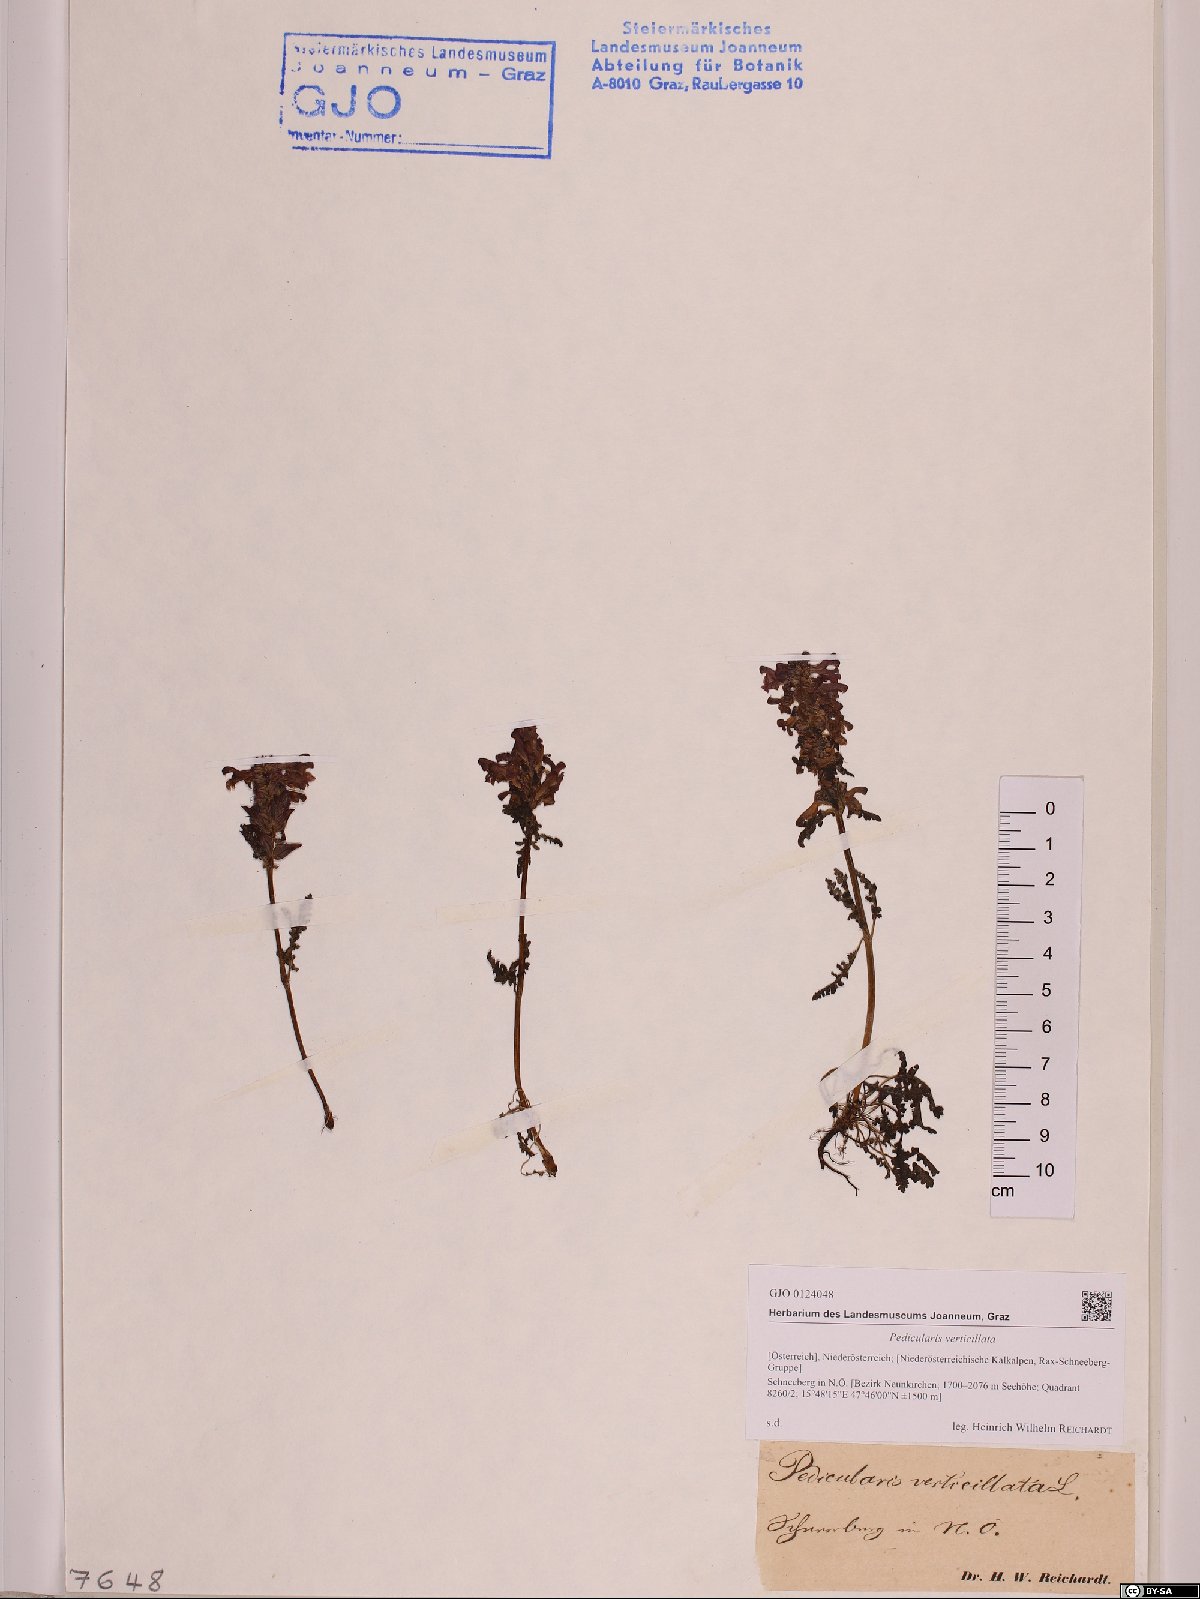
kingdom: Plantae
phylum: Tracheophyta
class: Magnoliopsida
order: Lamiales
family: Orobanchaceae
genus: Pedicularis
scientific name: Pedicularis verticillata
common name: Whorled lousewort
